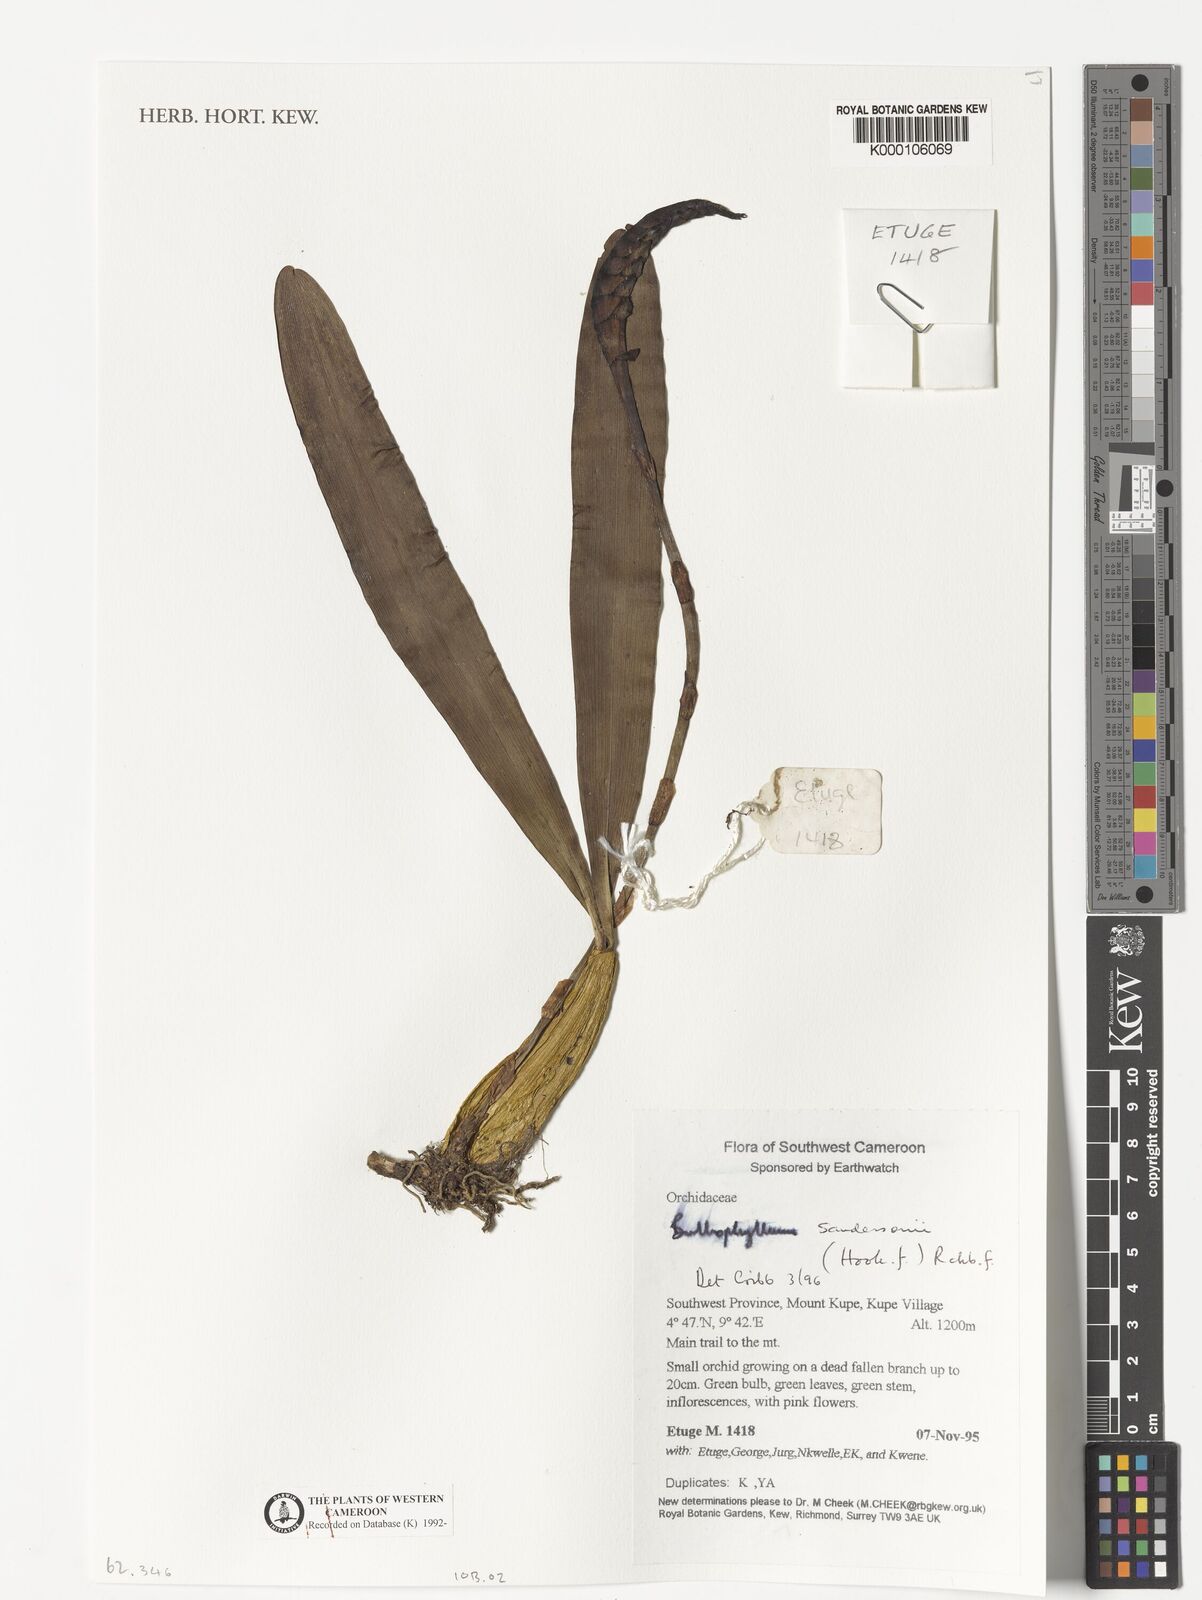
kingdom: Plantae
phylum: Tracheophyta
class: Liliopsida
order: Asparagales
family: Orchidaceae
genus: Bulbophyllum
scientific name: Bulbophyllum sandersonii
